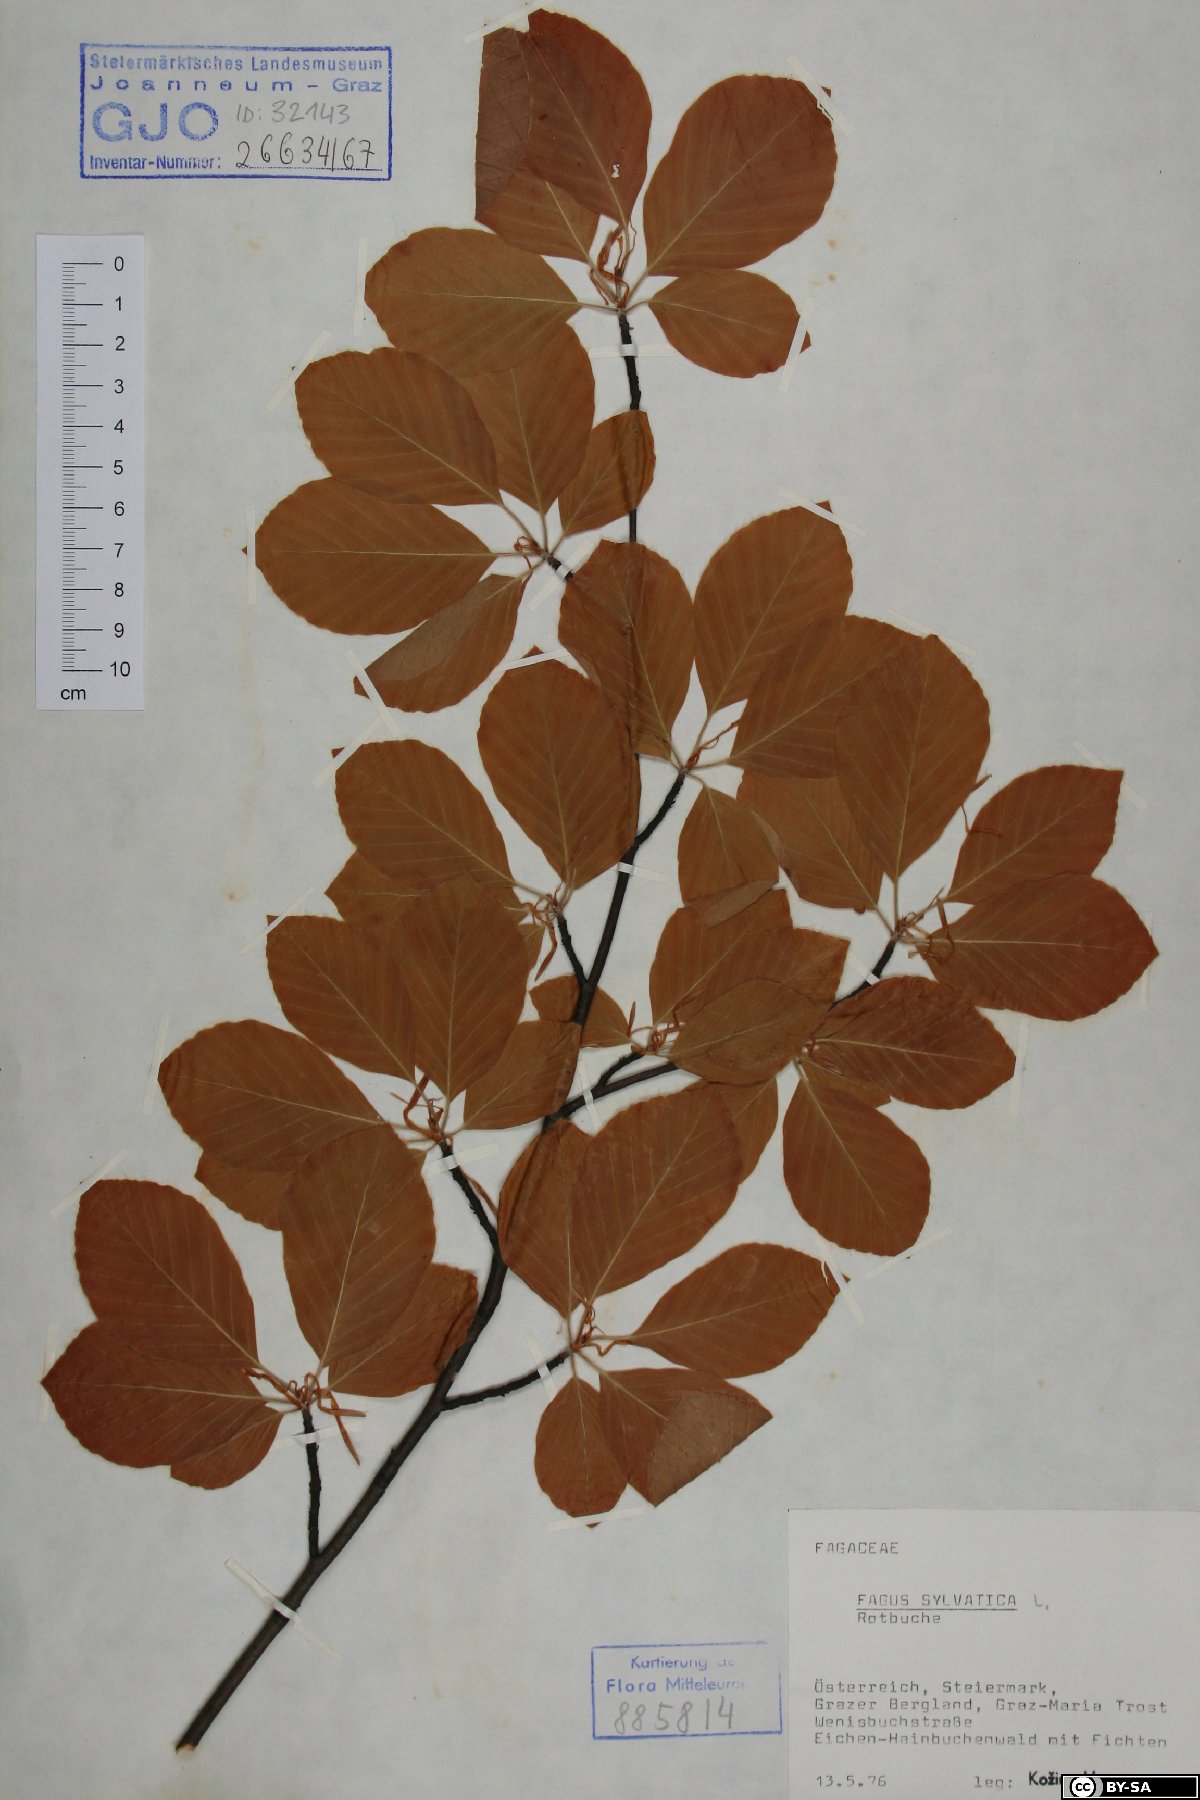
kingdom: Plantae
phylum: Tracheophyta
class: Magnoliopsida
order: Fagales
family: Fagaceae
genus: Fagus
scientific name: Fagus sylvatica
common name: Beech
